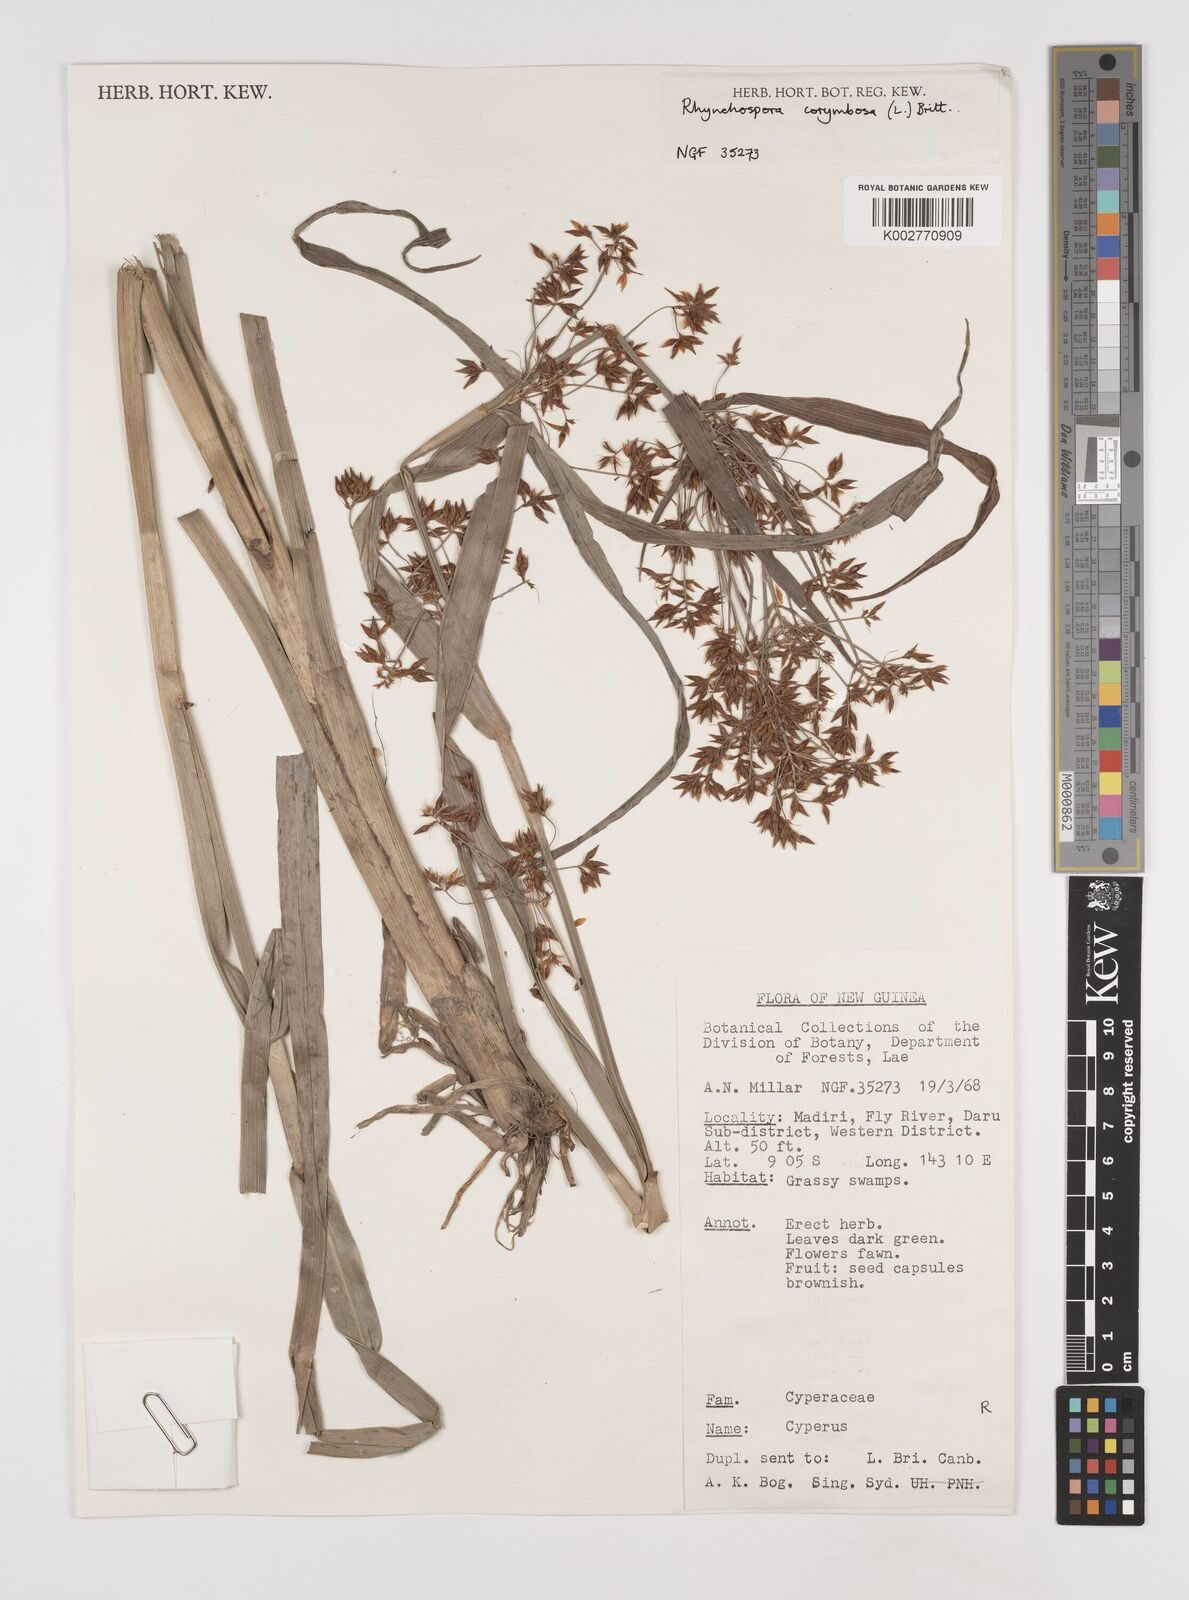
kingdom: Plantae
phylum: Tracheophyta
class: Liliopsida
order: Poales
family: Cyperaceae
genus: Rhynchospora
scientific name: Rhynchospora corymbosa
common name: Golden beak sedge
